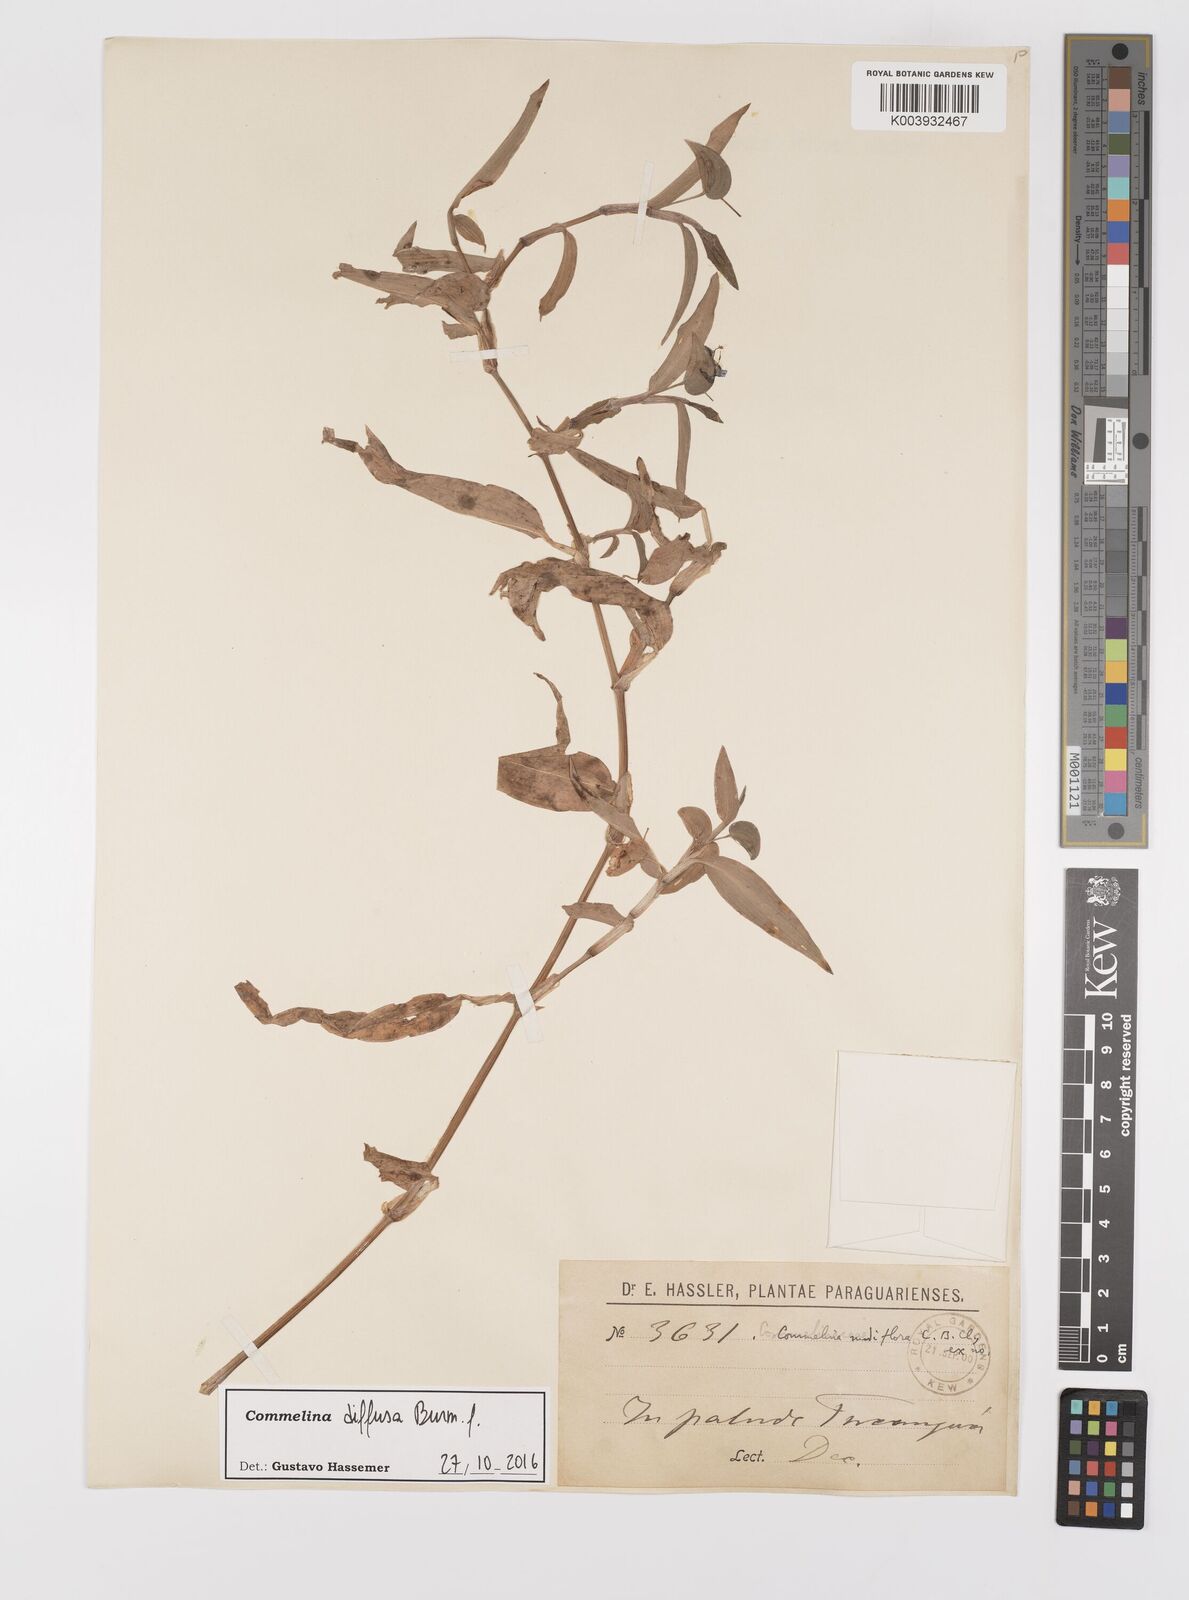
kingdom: Plantae
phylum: Tracheophyta
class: Liliopsida
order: Commelinales
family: Commelinaceae
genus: Commelina
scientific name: Commelina diffusa
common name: Climbing dayflower
